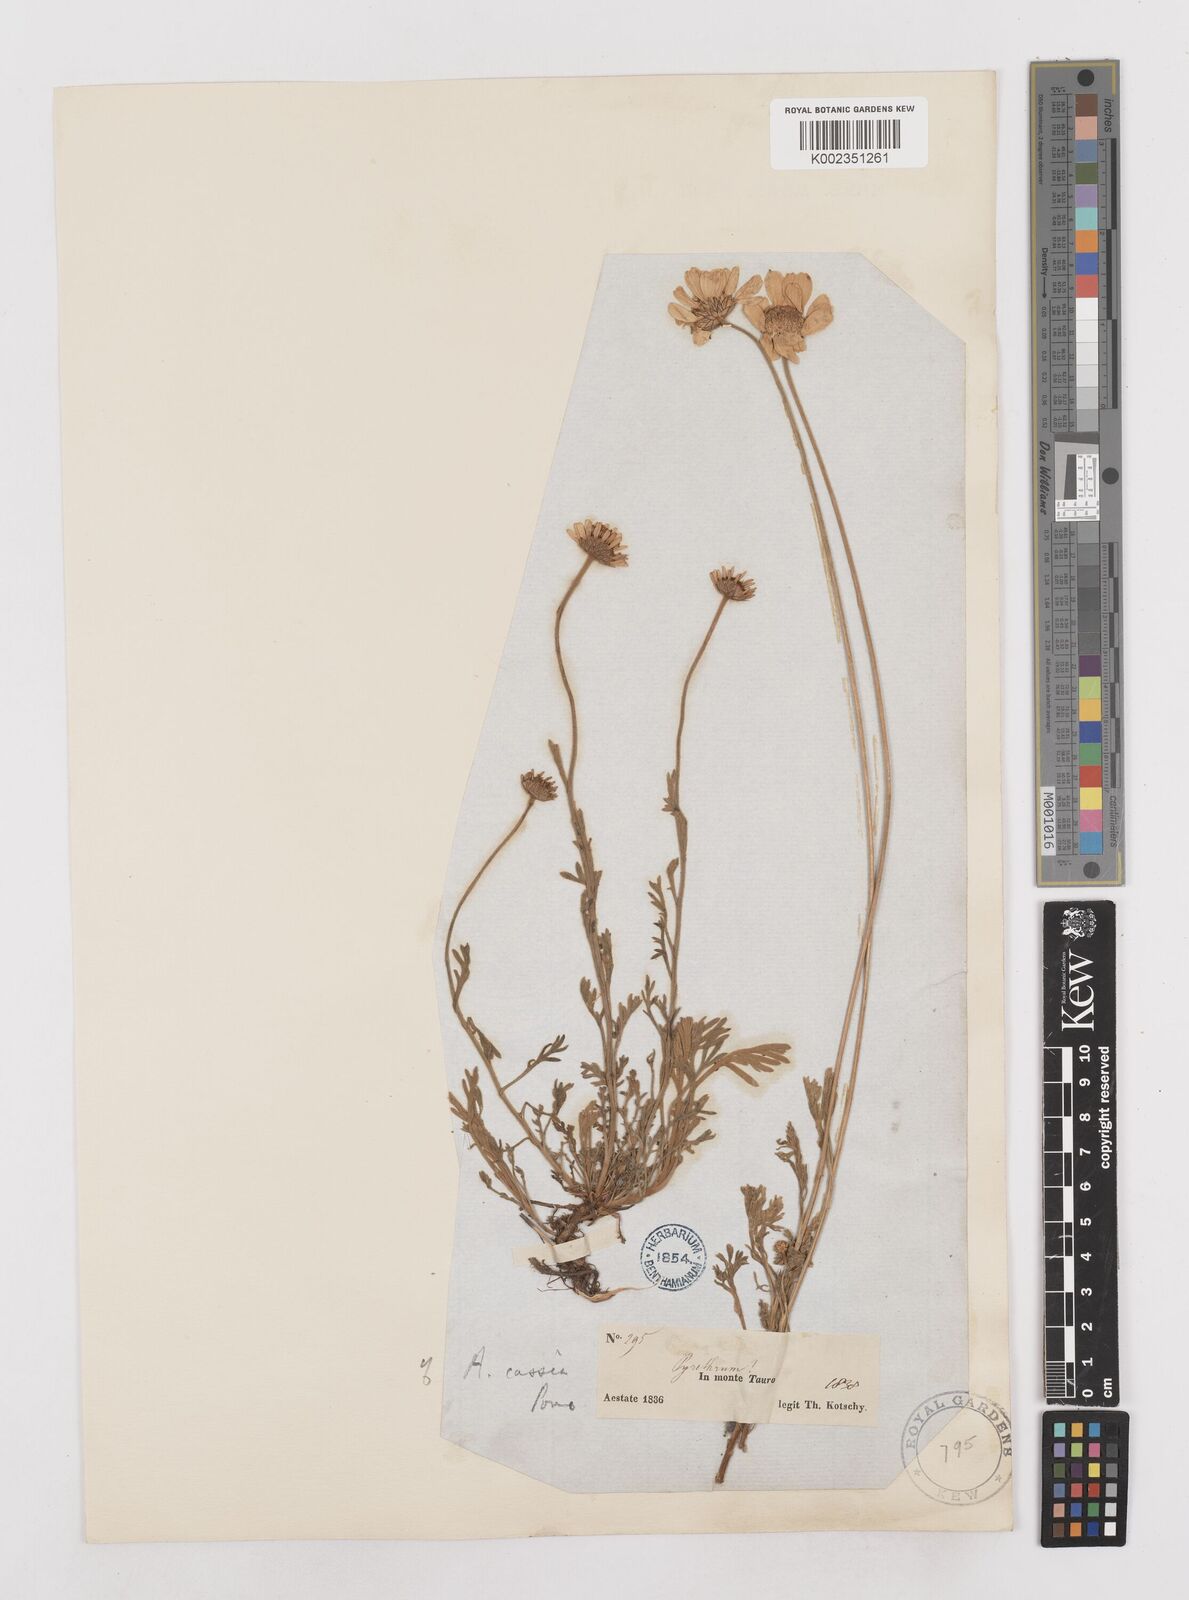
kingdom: Plantae
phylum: Tracheophyta
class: Magnoliopsida
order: Asterales
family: Asteraceae
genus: Anthemis
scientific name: Anthemis cretica
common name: Mountain dog-daisy
